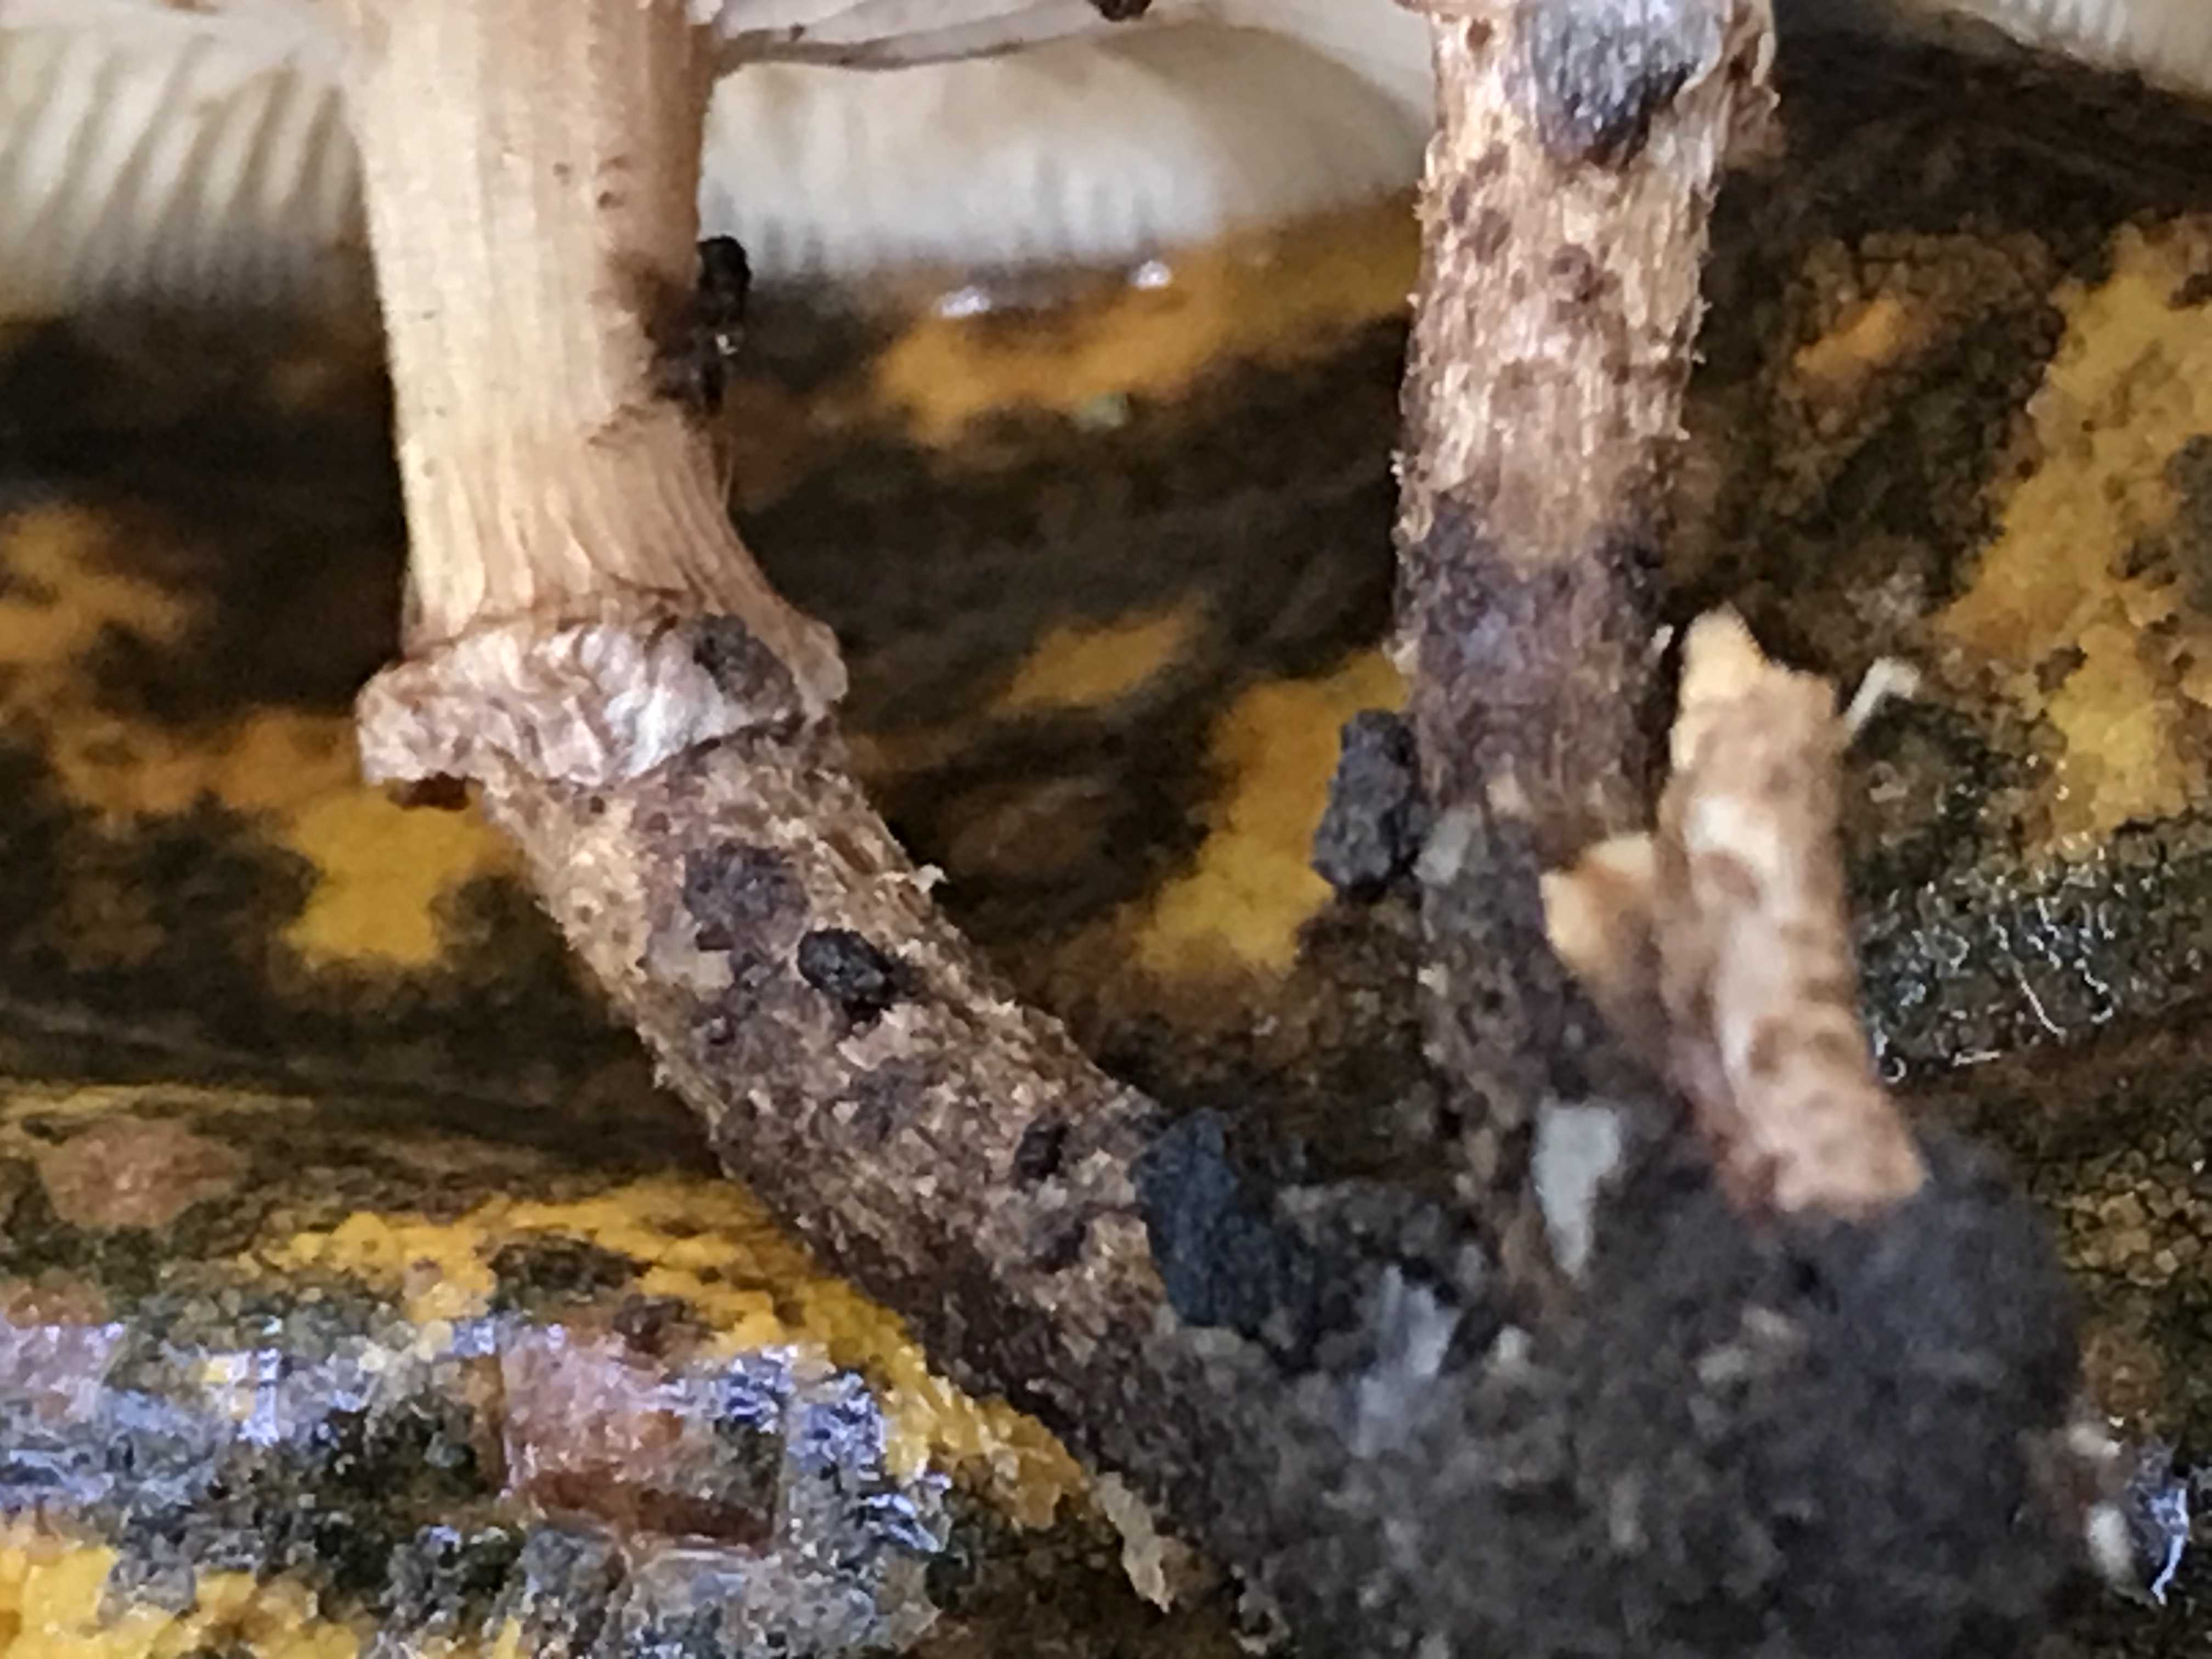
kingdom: Fungi
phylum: Basidiomycota
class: Agaricomycetes
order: Agaricales
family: Strophariaceae
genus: Kuehneromyces
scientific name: Kuehneromyces mutabilis
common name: foranderlig skælhat
